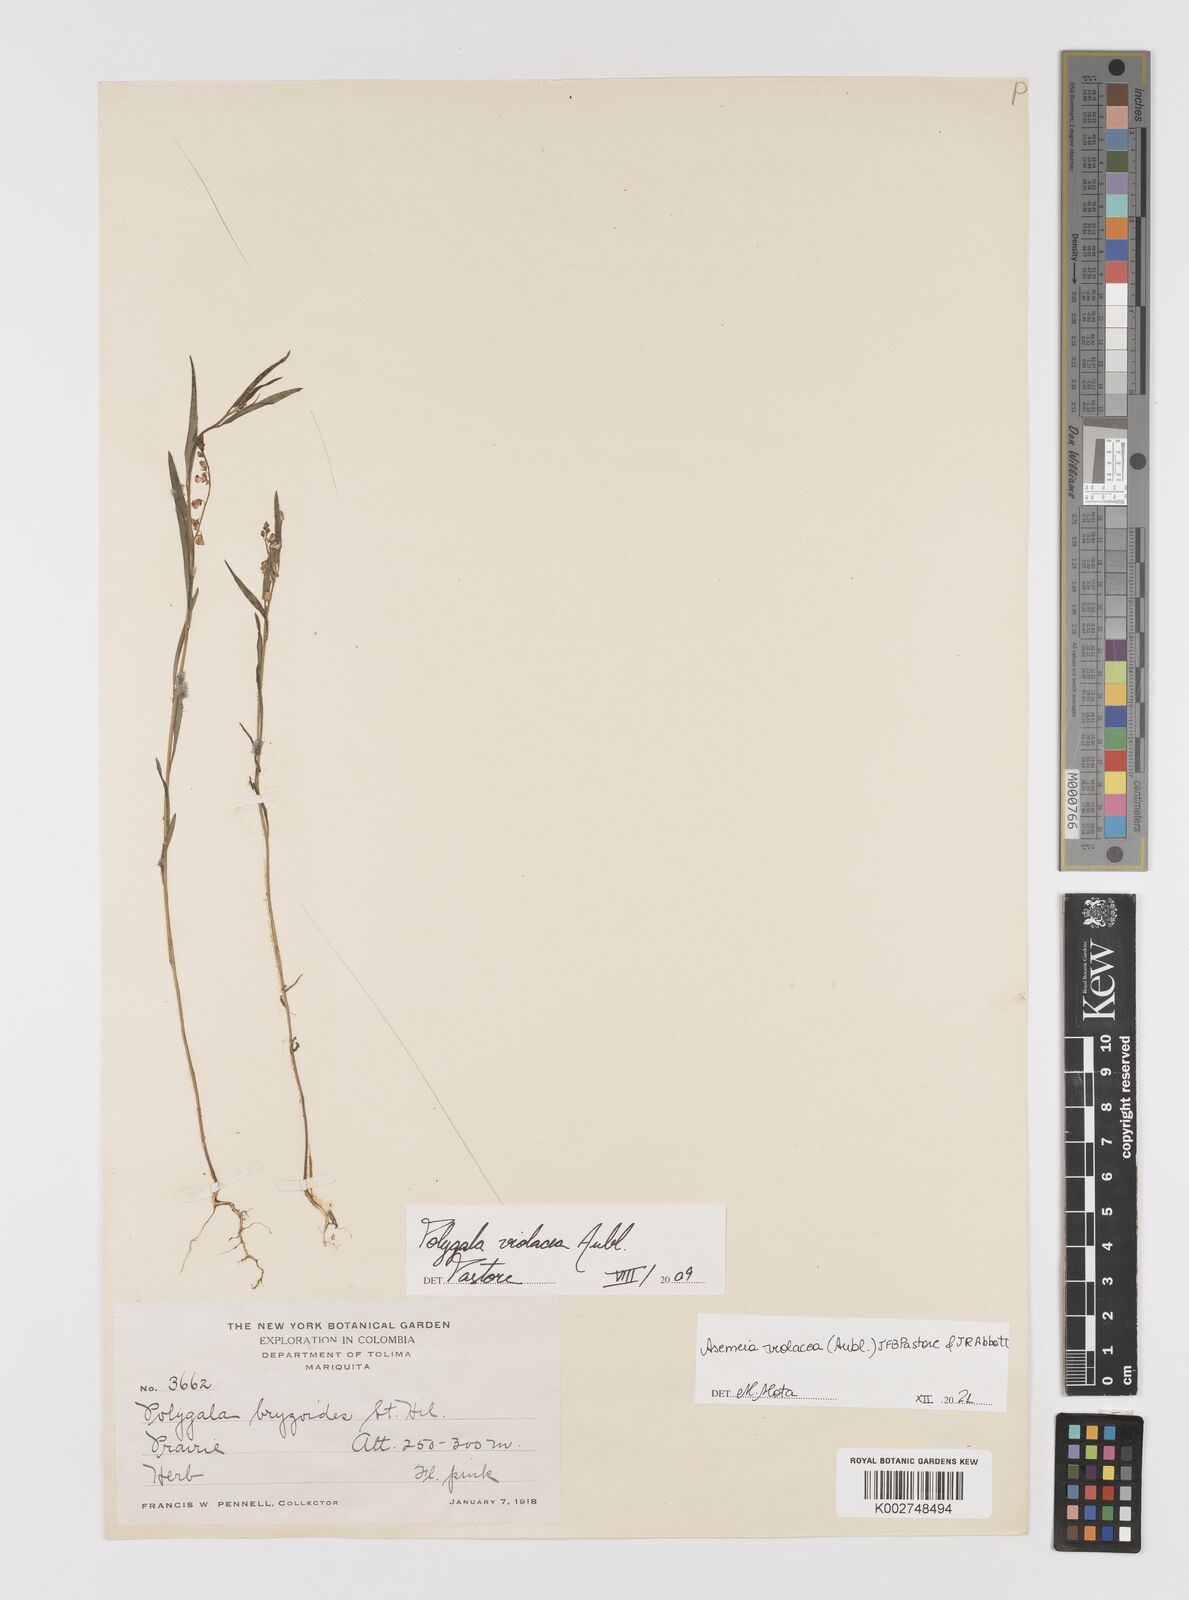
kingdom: Plantae
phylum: Tracheophyta
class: Magnoliopsida
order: Fabales
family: Polygalaceae
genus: Asemeia
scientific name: Asemeia violacea
